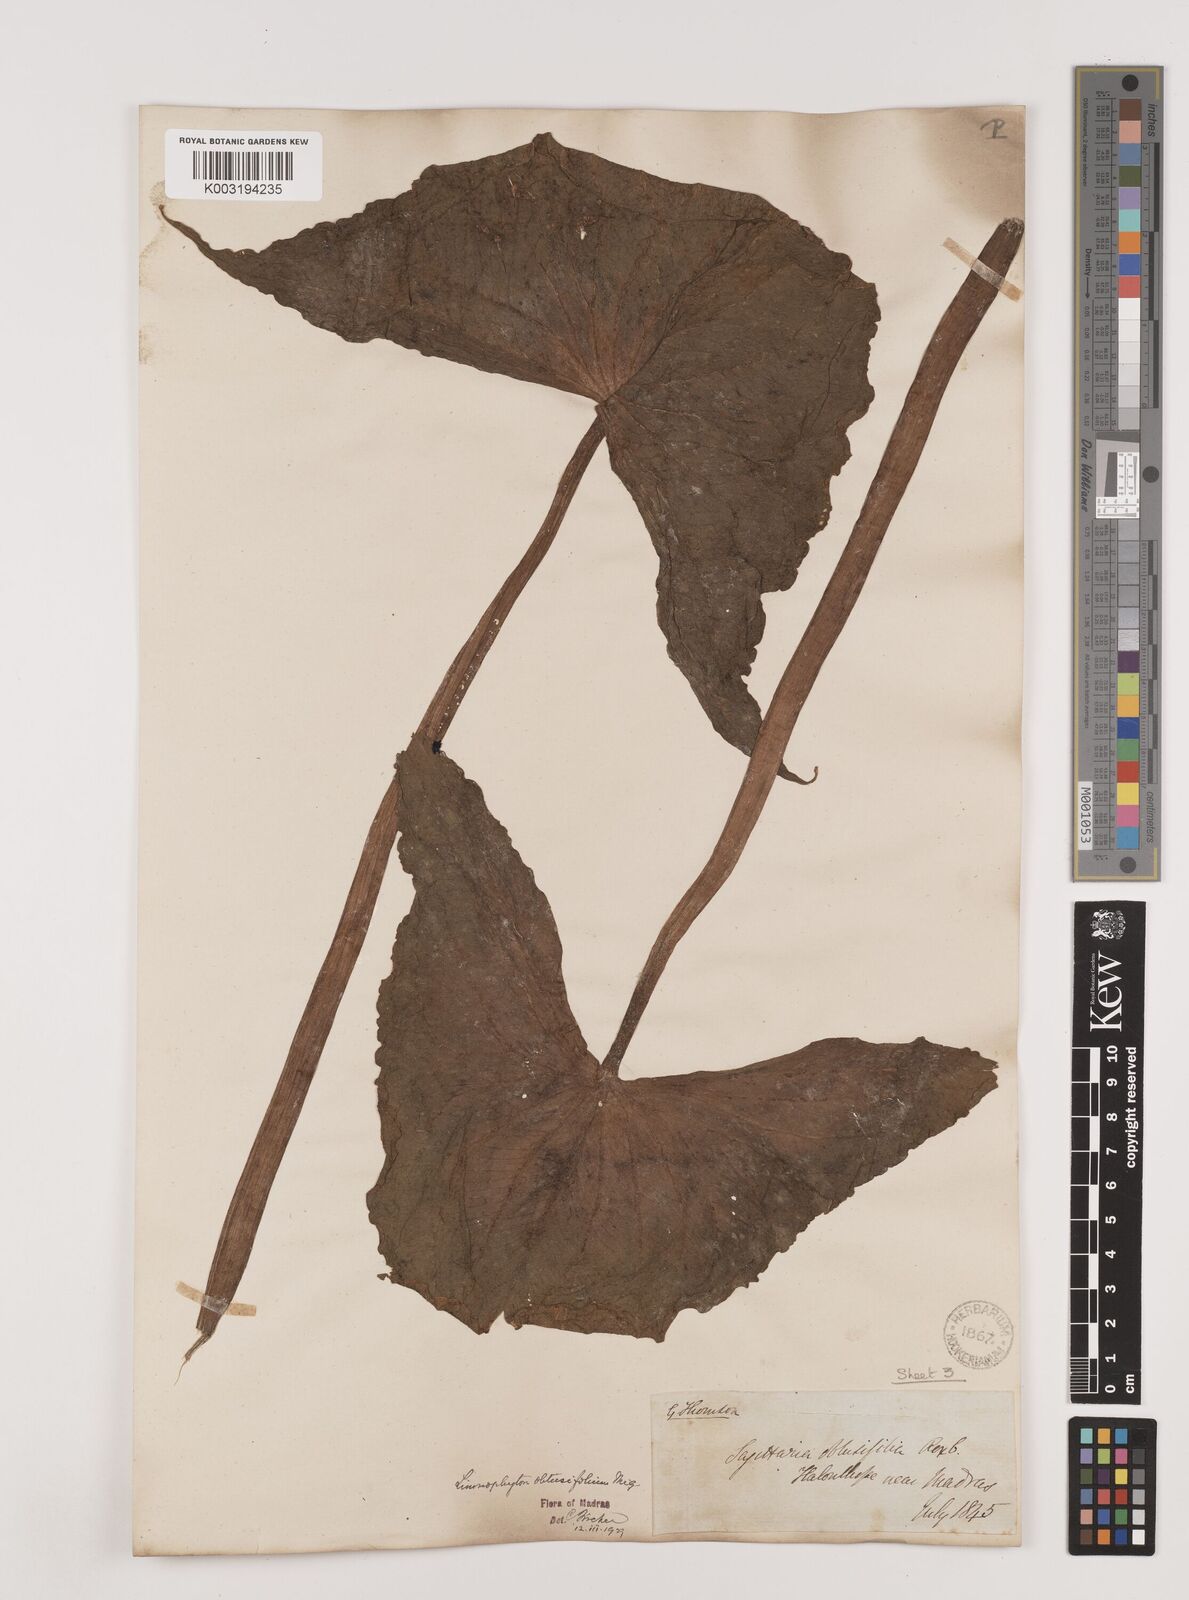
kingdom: Plantae
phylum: Tracheophyta
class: Liliopsida
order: Alismatales
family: Alismataceae
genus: Limnophyton
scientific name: Limnophyton obtusifolium
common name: Arrow head
